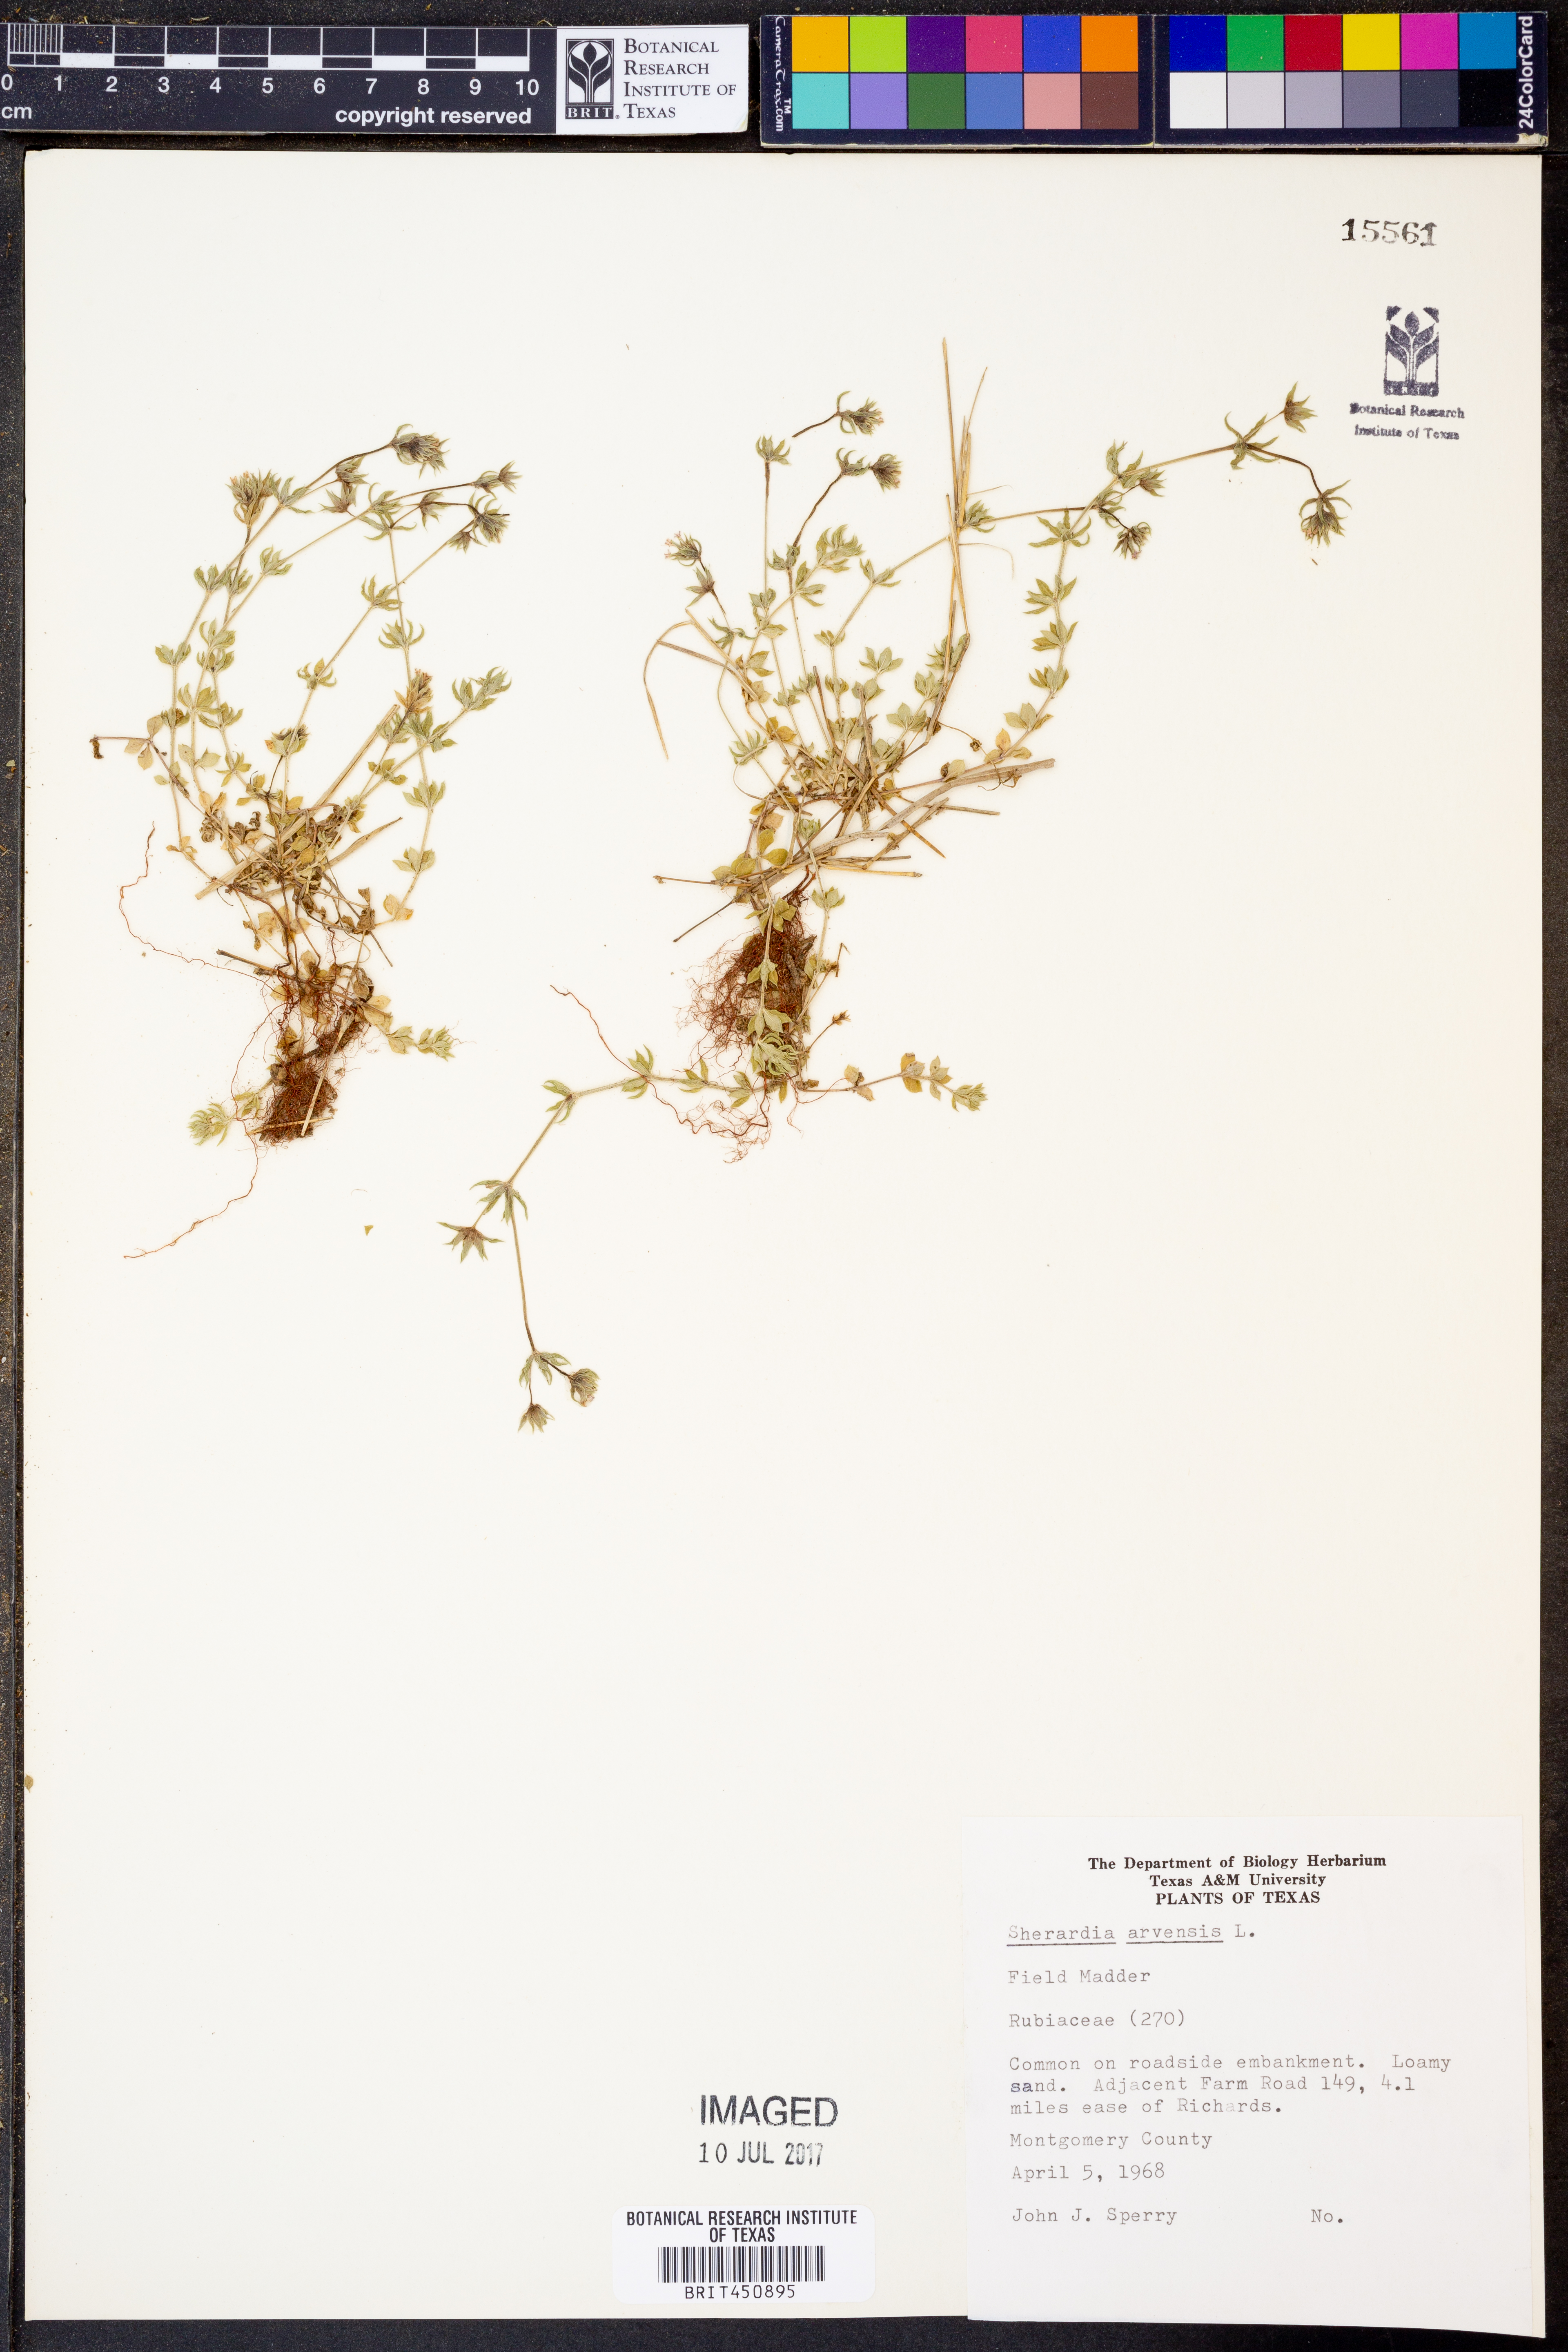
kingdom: Plantae
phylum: Tracheophyta
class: Magnoliopsida
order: Gentianales
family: Rubiaceae
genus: Sherardia
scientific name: Sherardia arvensis
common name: Field madder
